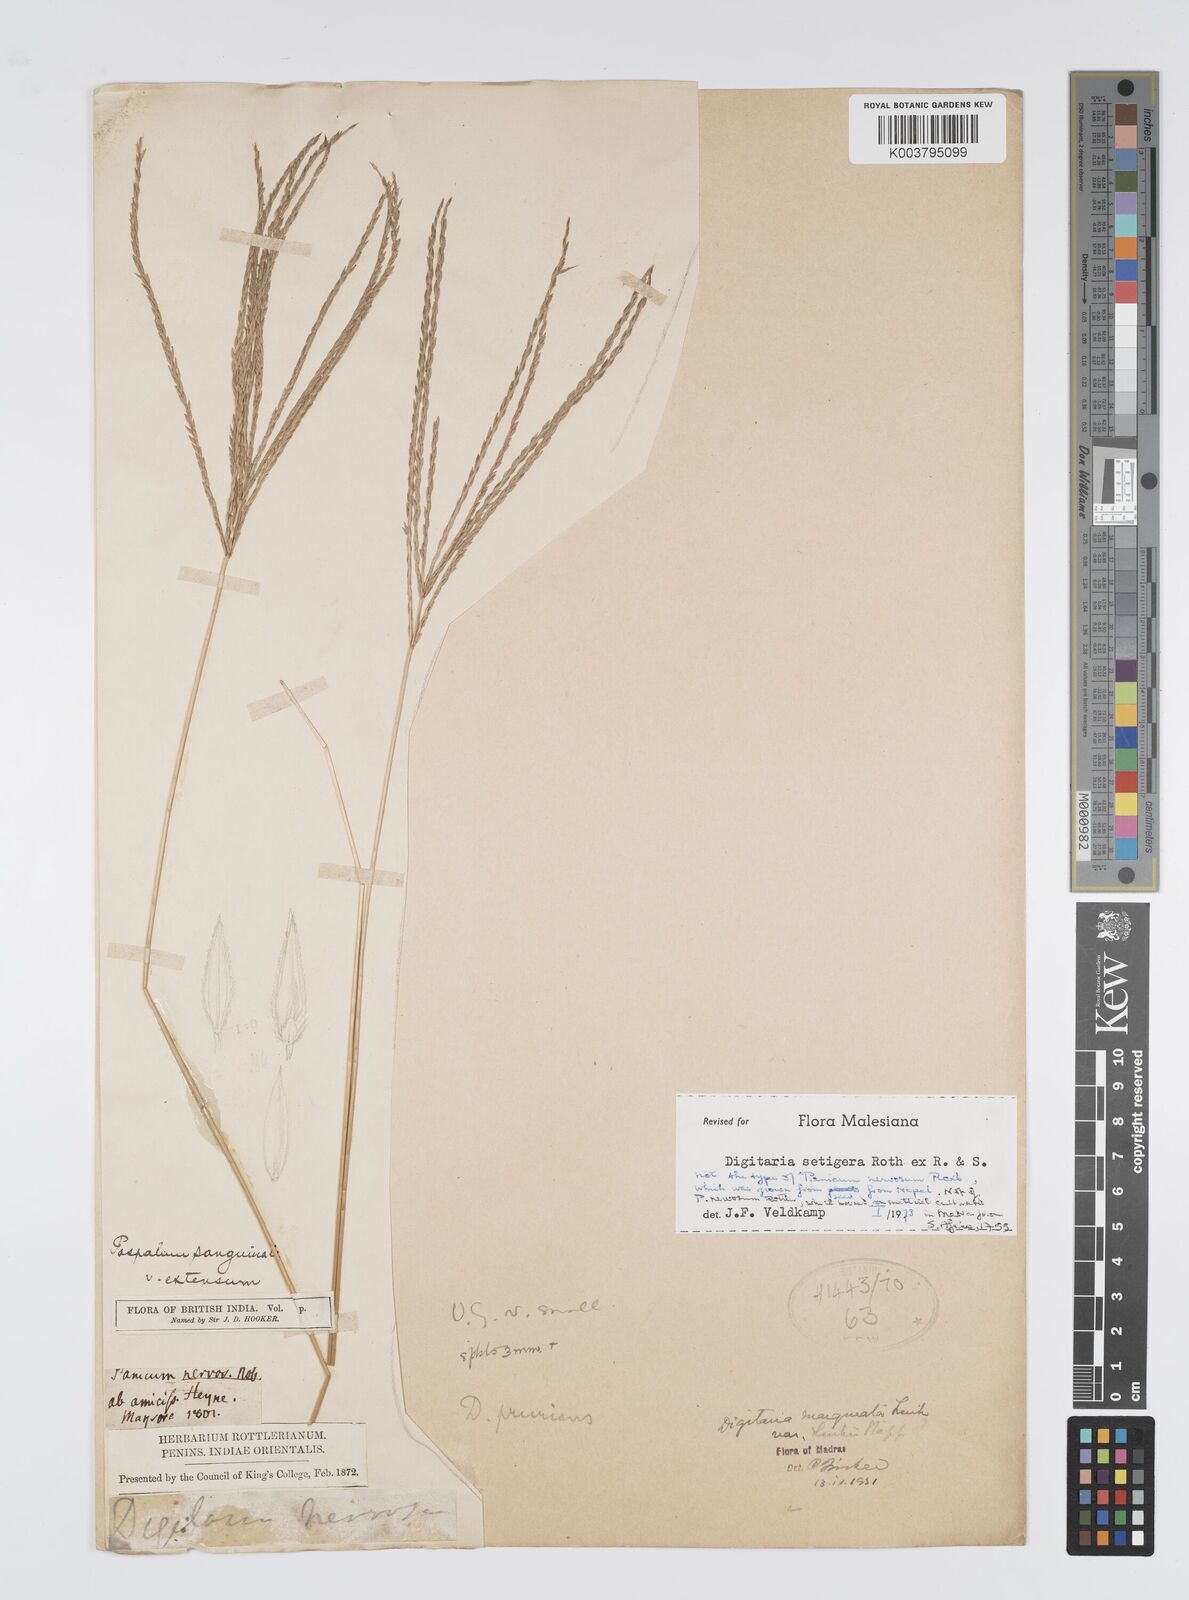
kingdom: Plantae
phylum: Tracheophyta
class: Liliopsida
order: Poales
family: Poaceae
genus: Digitaria
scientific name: Digitaria setigera
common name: East indian crabgrass
